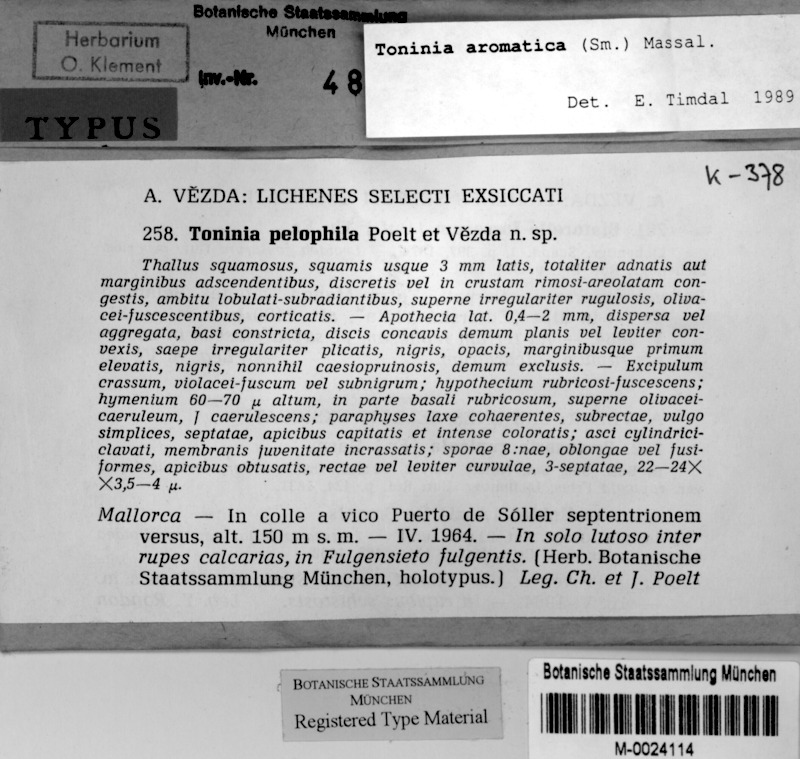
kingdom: Fungi
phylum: Ascomycota
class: Lecanoromycetes
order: Lecanorales
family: Ramalinaceae
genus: Toniniopsis
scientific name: Toniniopsis aromatica
